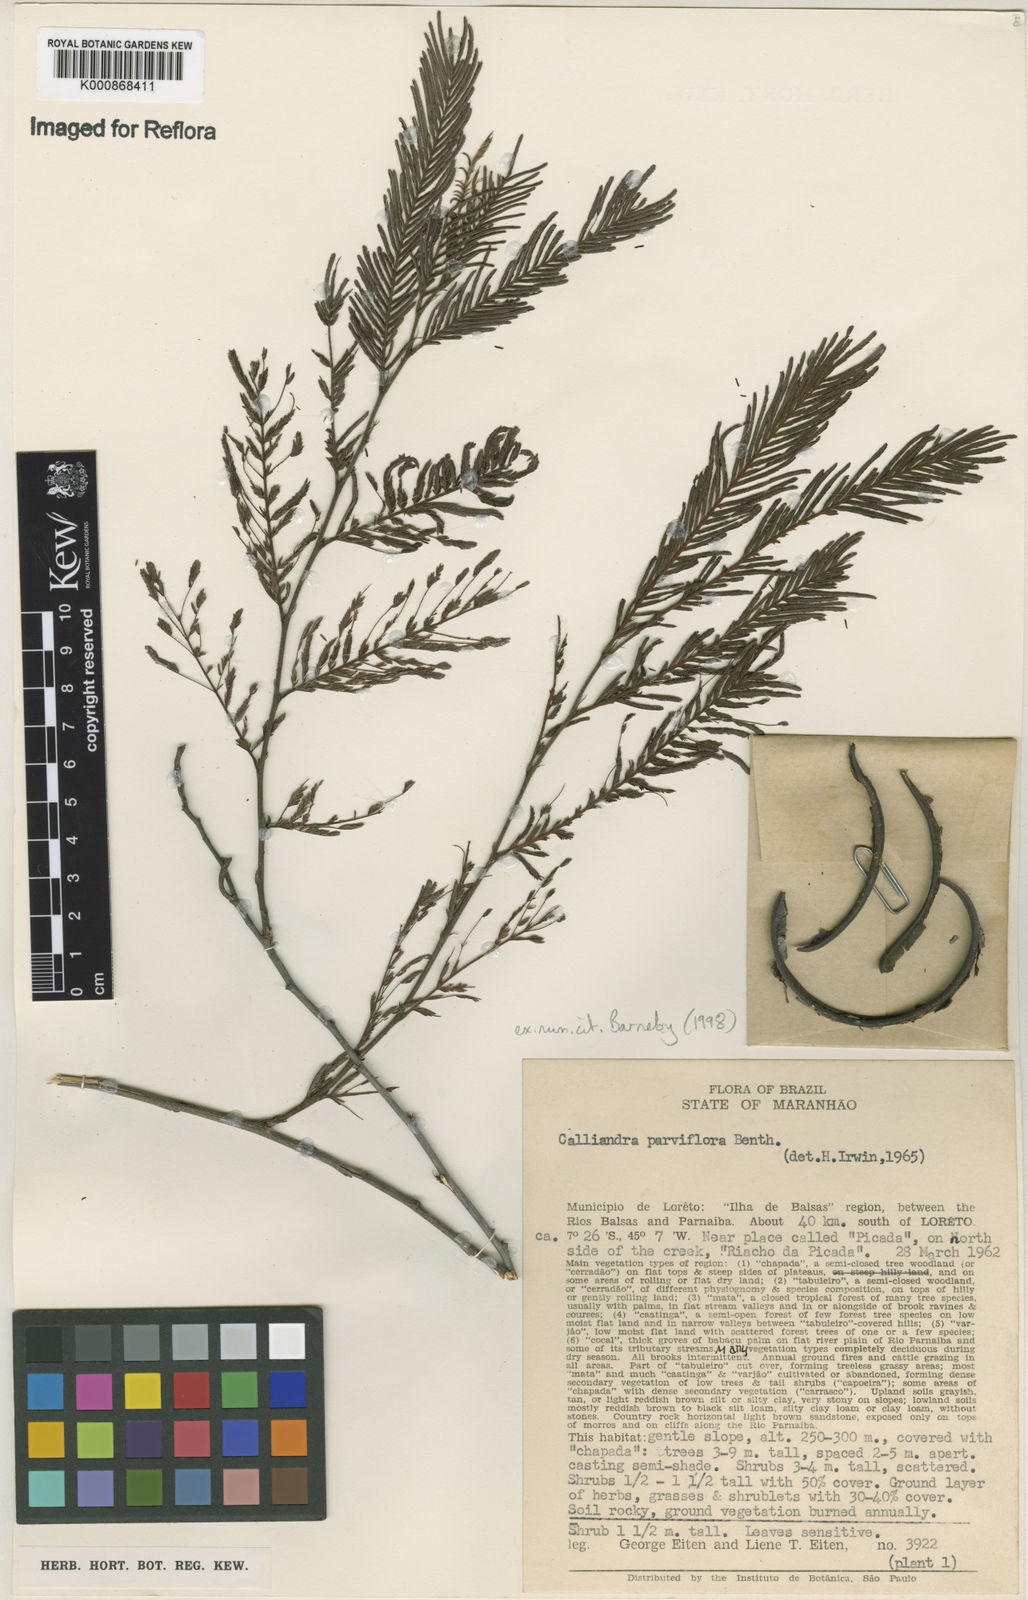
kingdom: Plantae
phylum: Tracheophyta
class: Magnoliopsida
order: Fabales
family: Fabaceae
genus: Calliandra
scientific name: Calliandra parviflora
